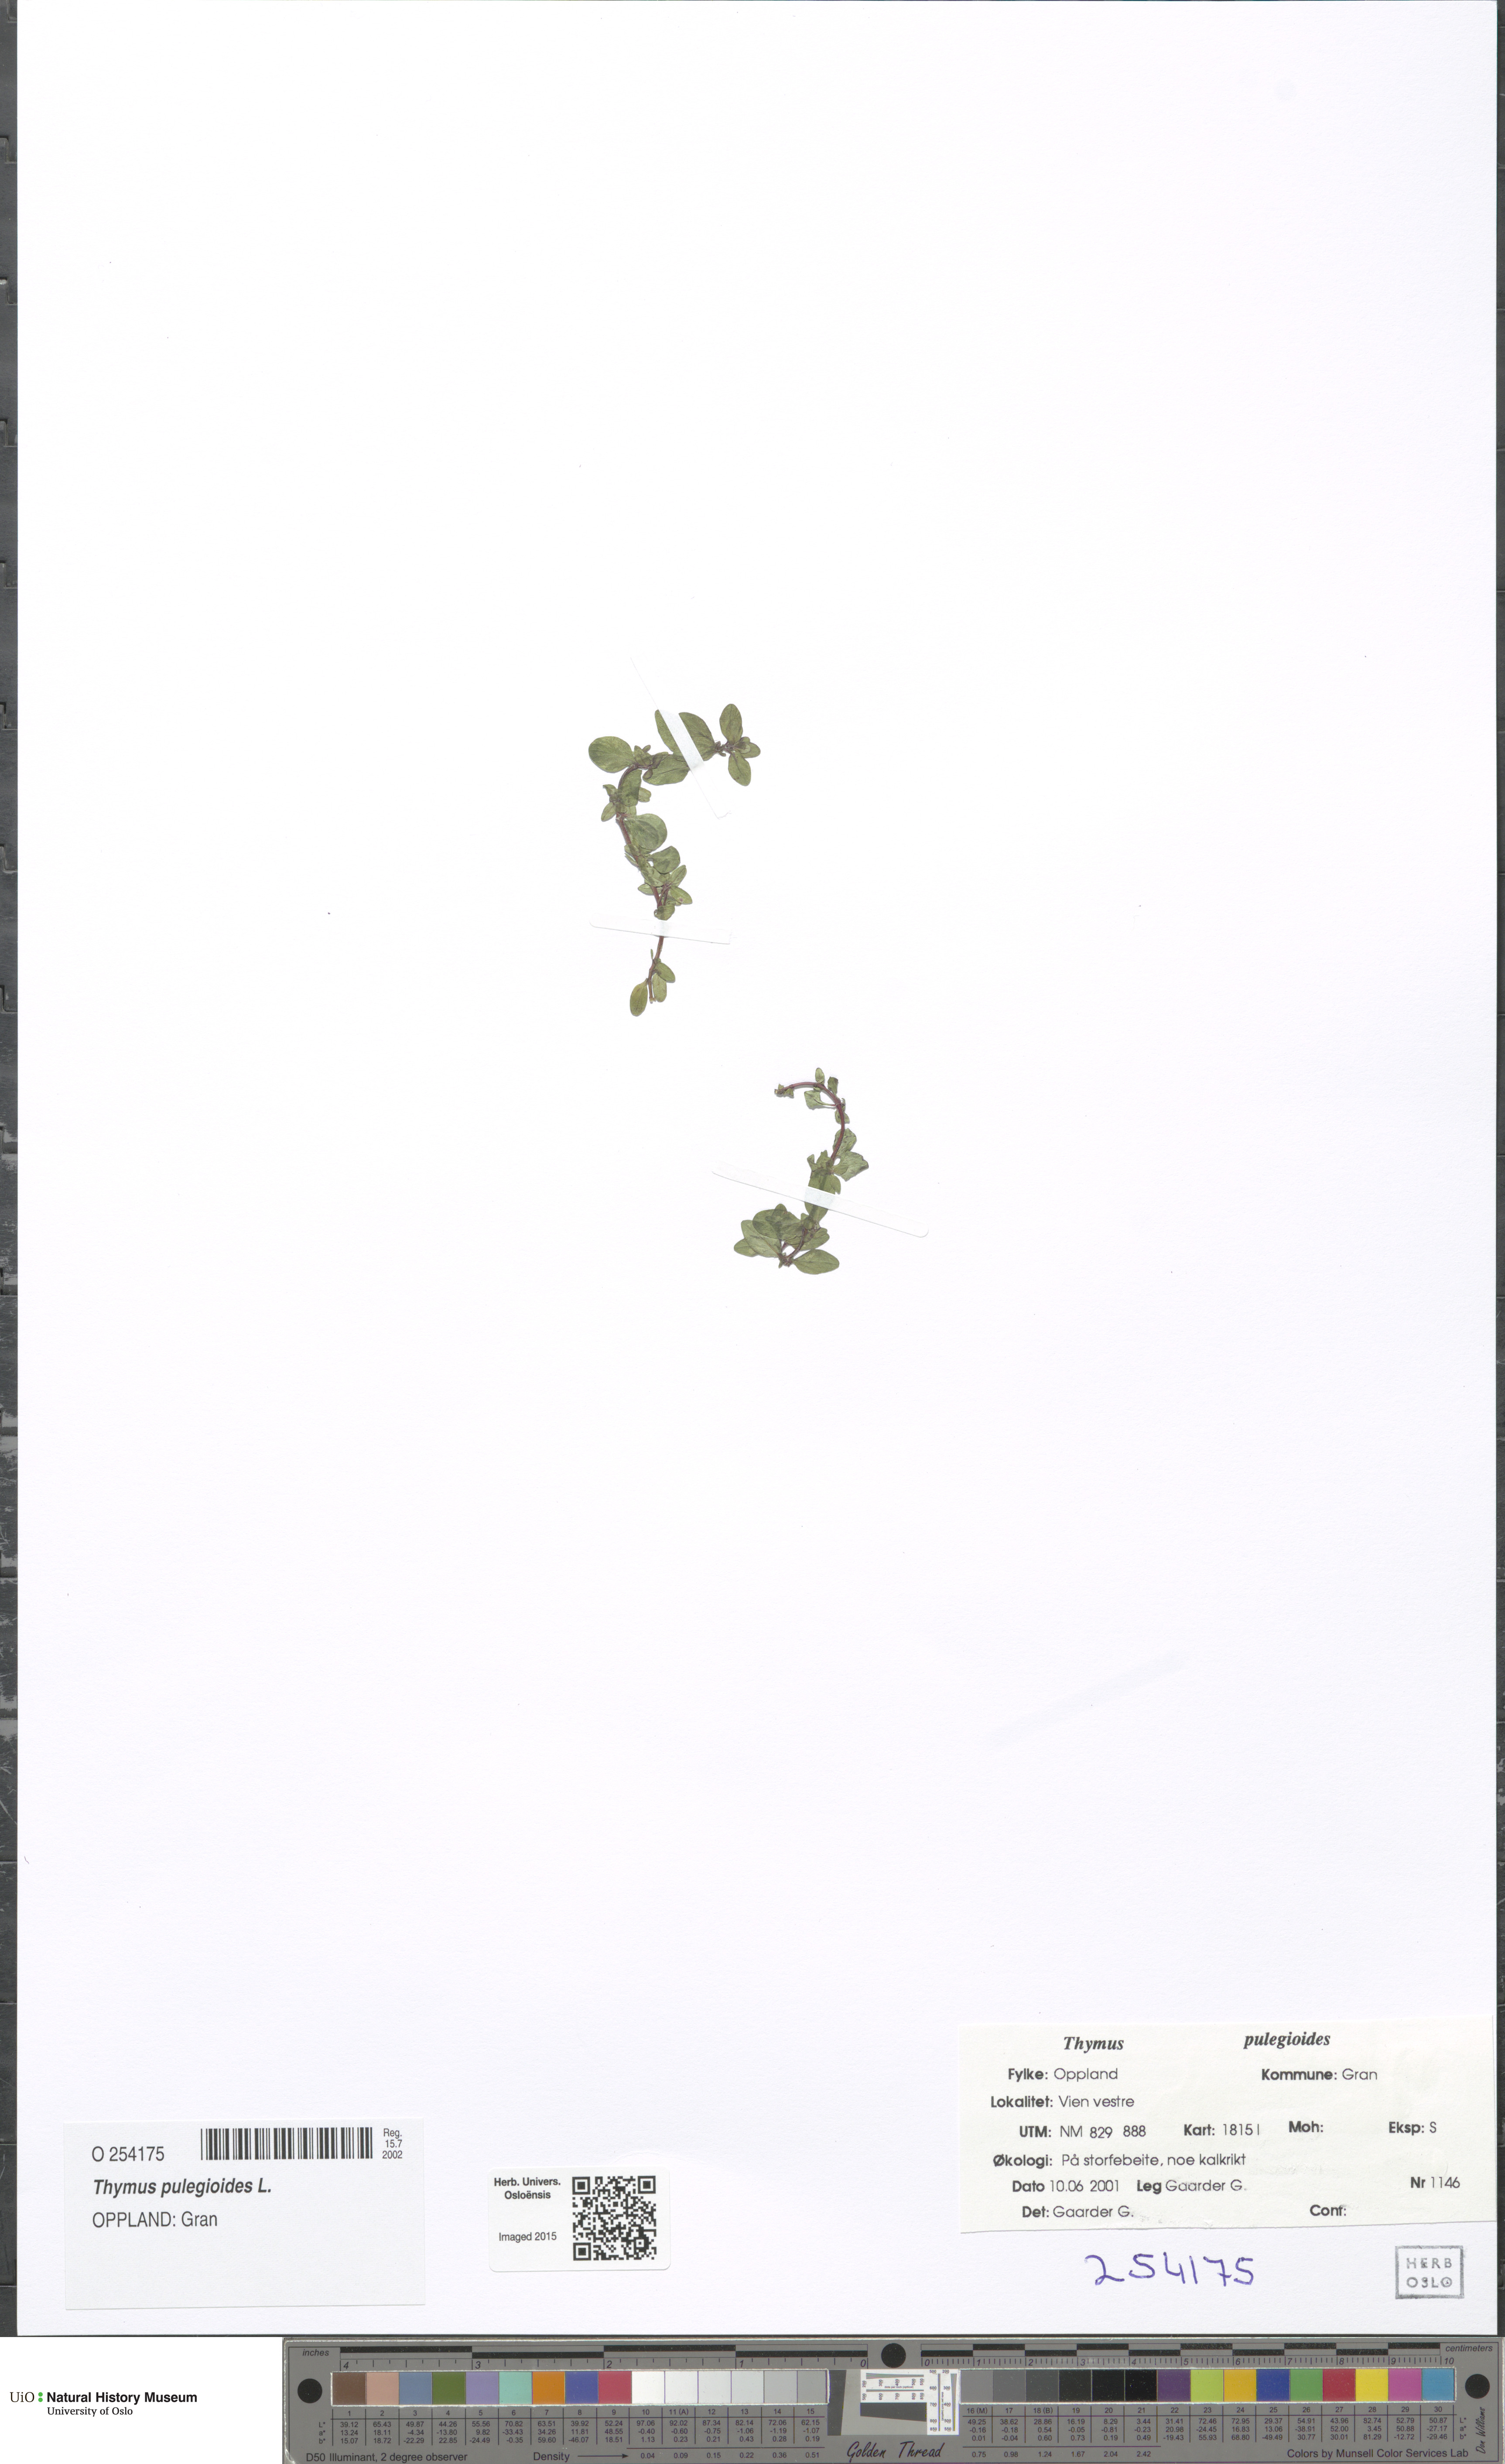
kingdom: Plantae
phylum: Tracheophyta
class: Magnoliopsida
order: Lamiales
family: Lamiaceae
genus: Thymus
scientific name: Thymus pulegioides
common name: Large thyme
